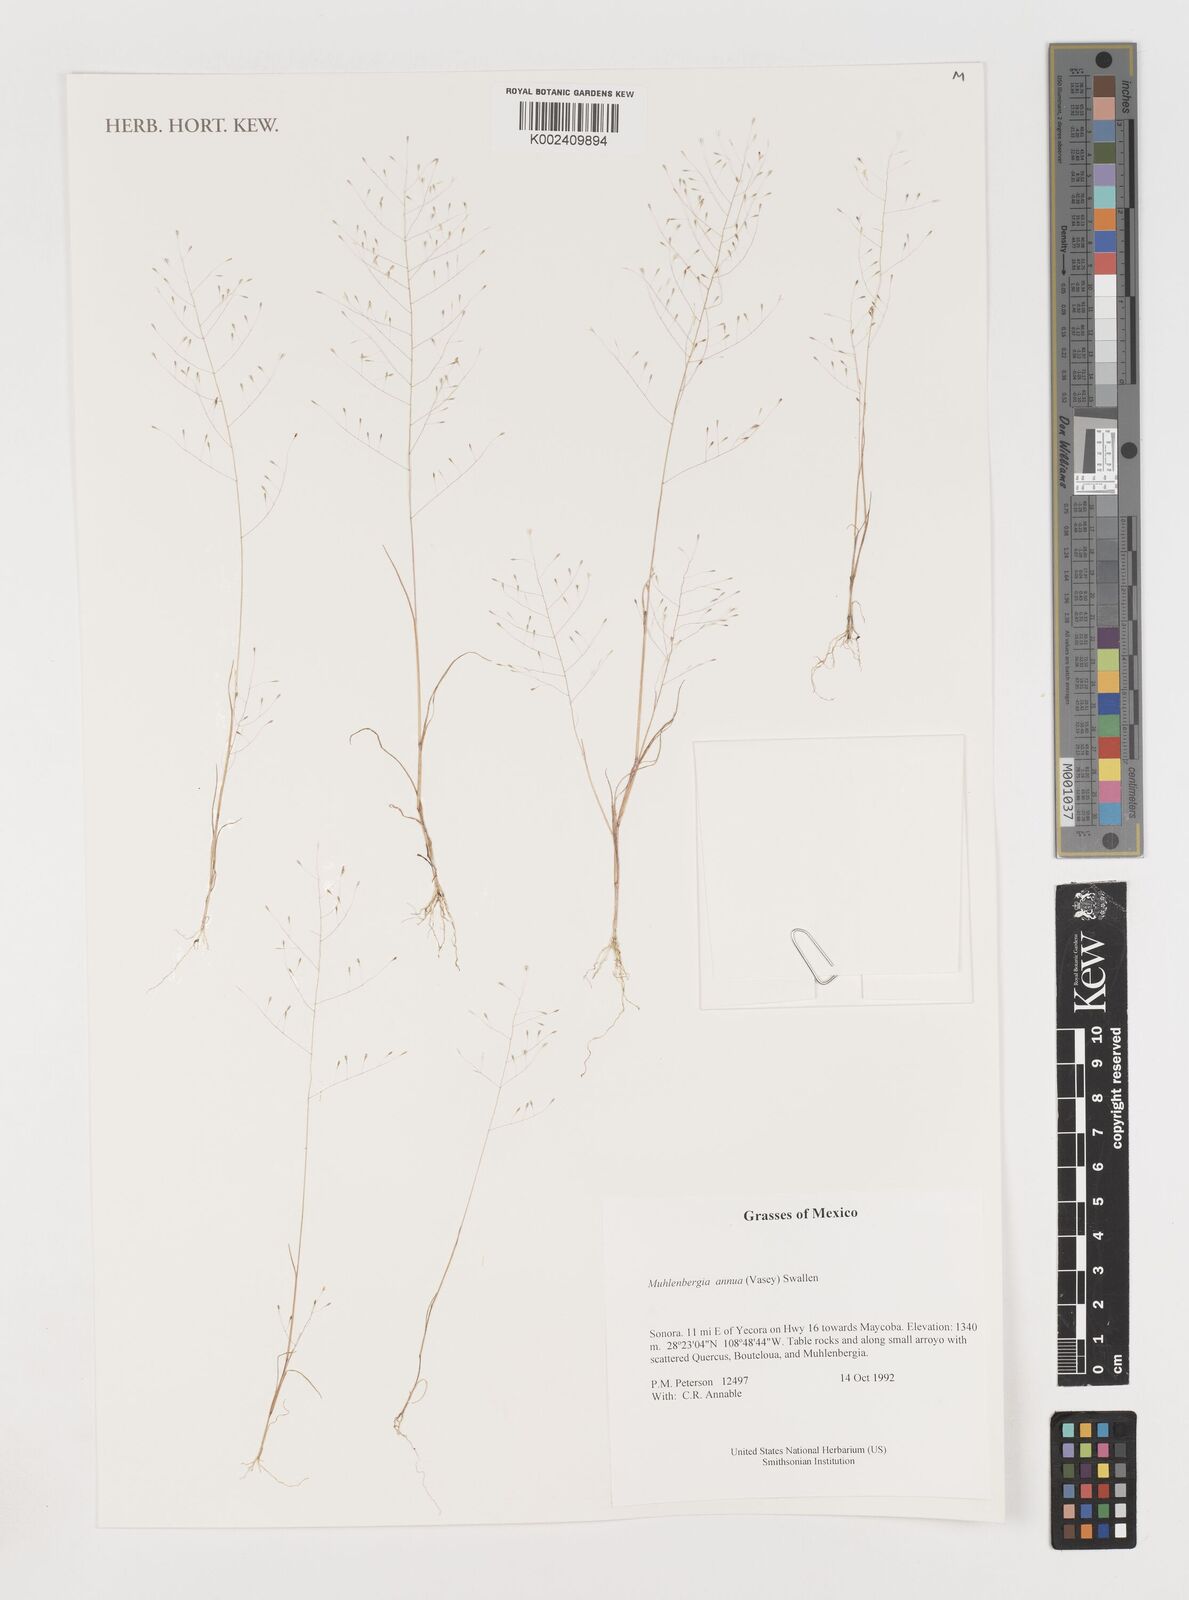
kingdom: Plantae
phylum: Tracheophyta
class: Liliopsida
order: Poales
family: Poaceae
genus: Muhlenbergia
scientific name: Muhlenbergia annua
